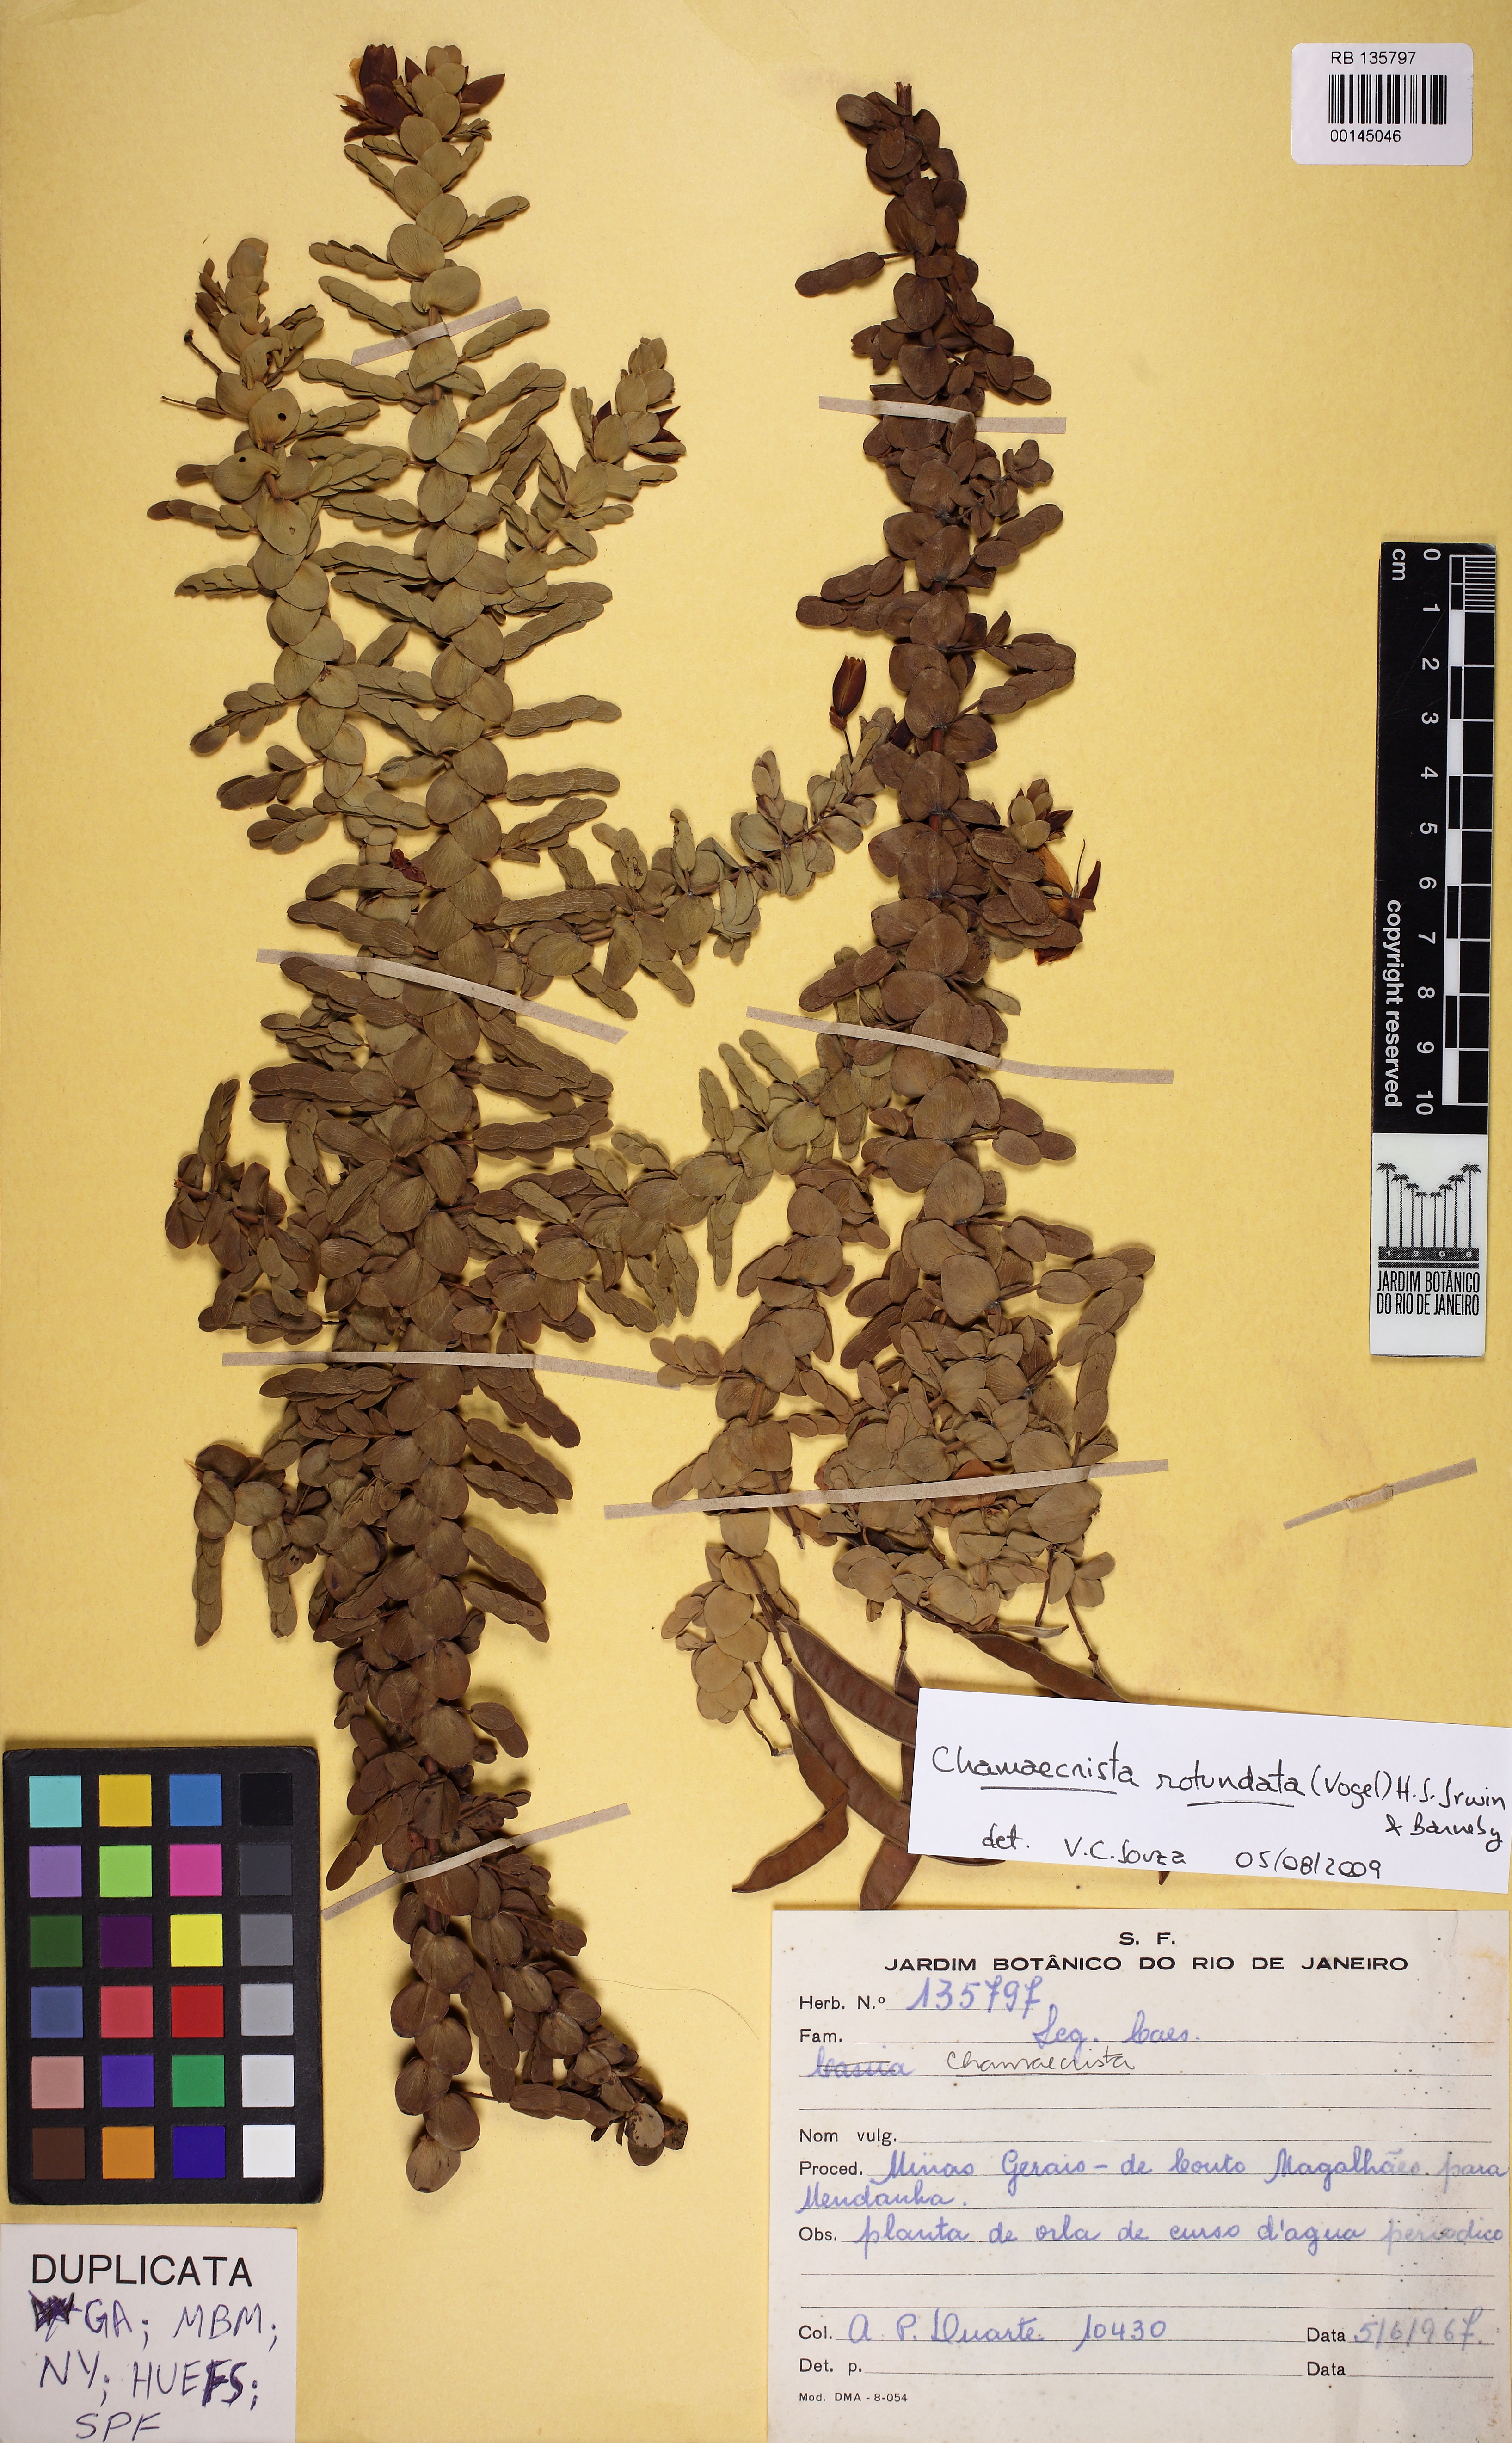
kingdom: Plantae
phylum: Tracheophyta
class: Magnoliopsida
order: Fabales
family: Fabaceae
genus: Chamaecrista
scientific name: Chamaecrista rotundata
